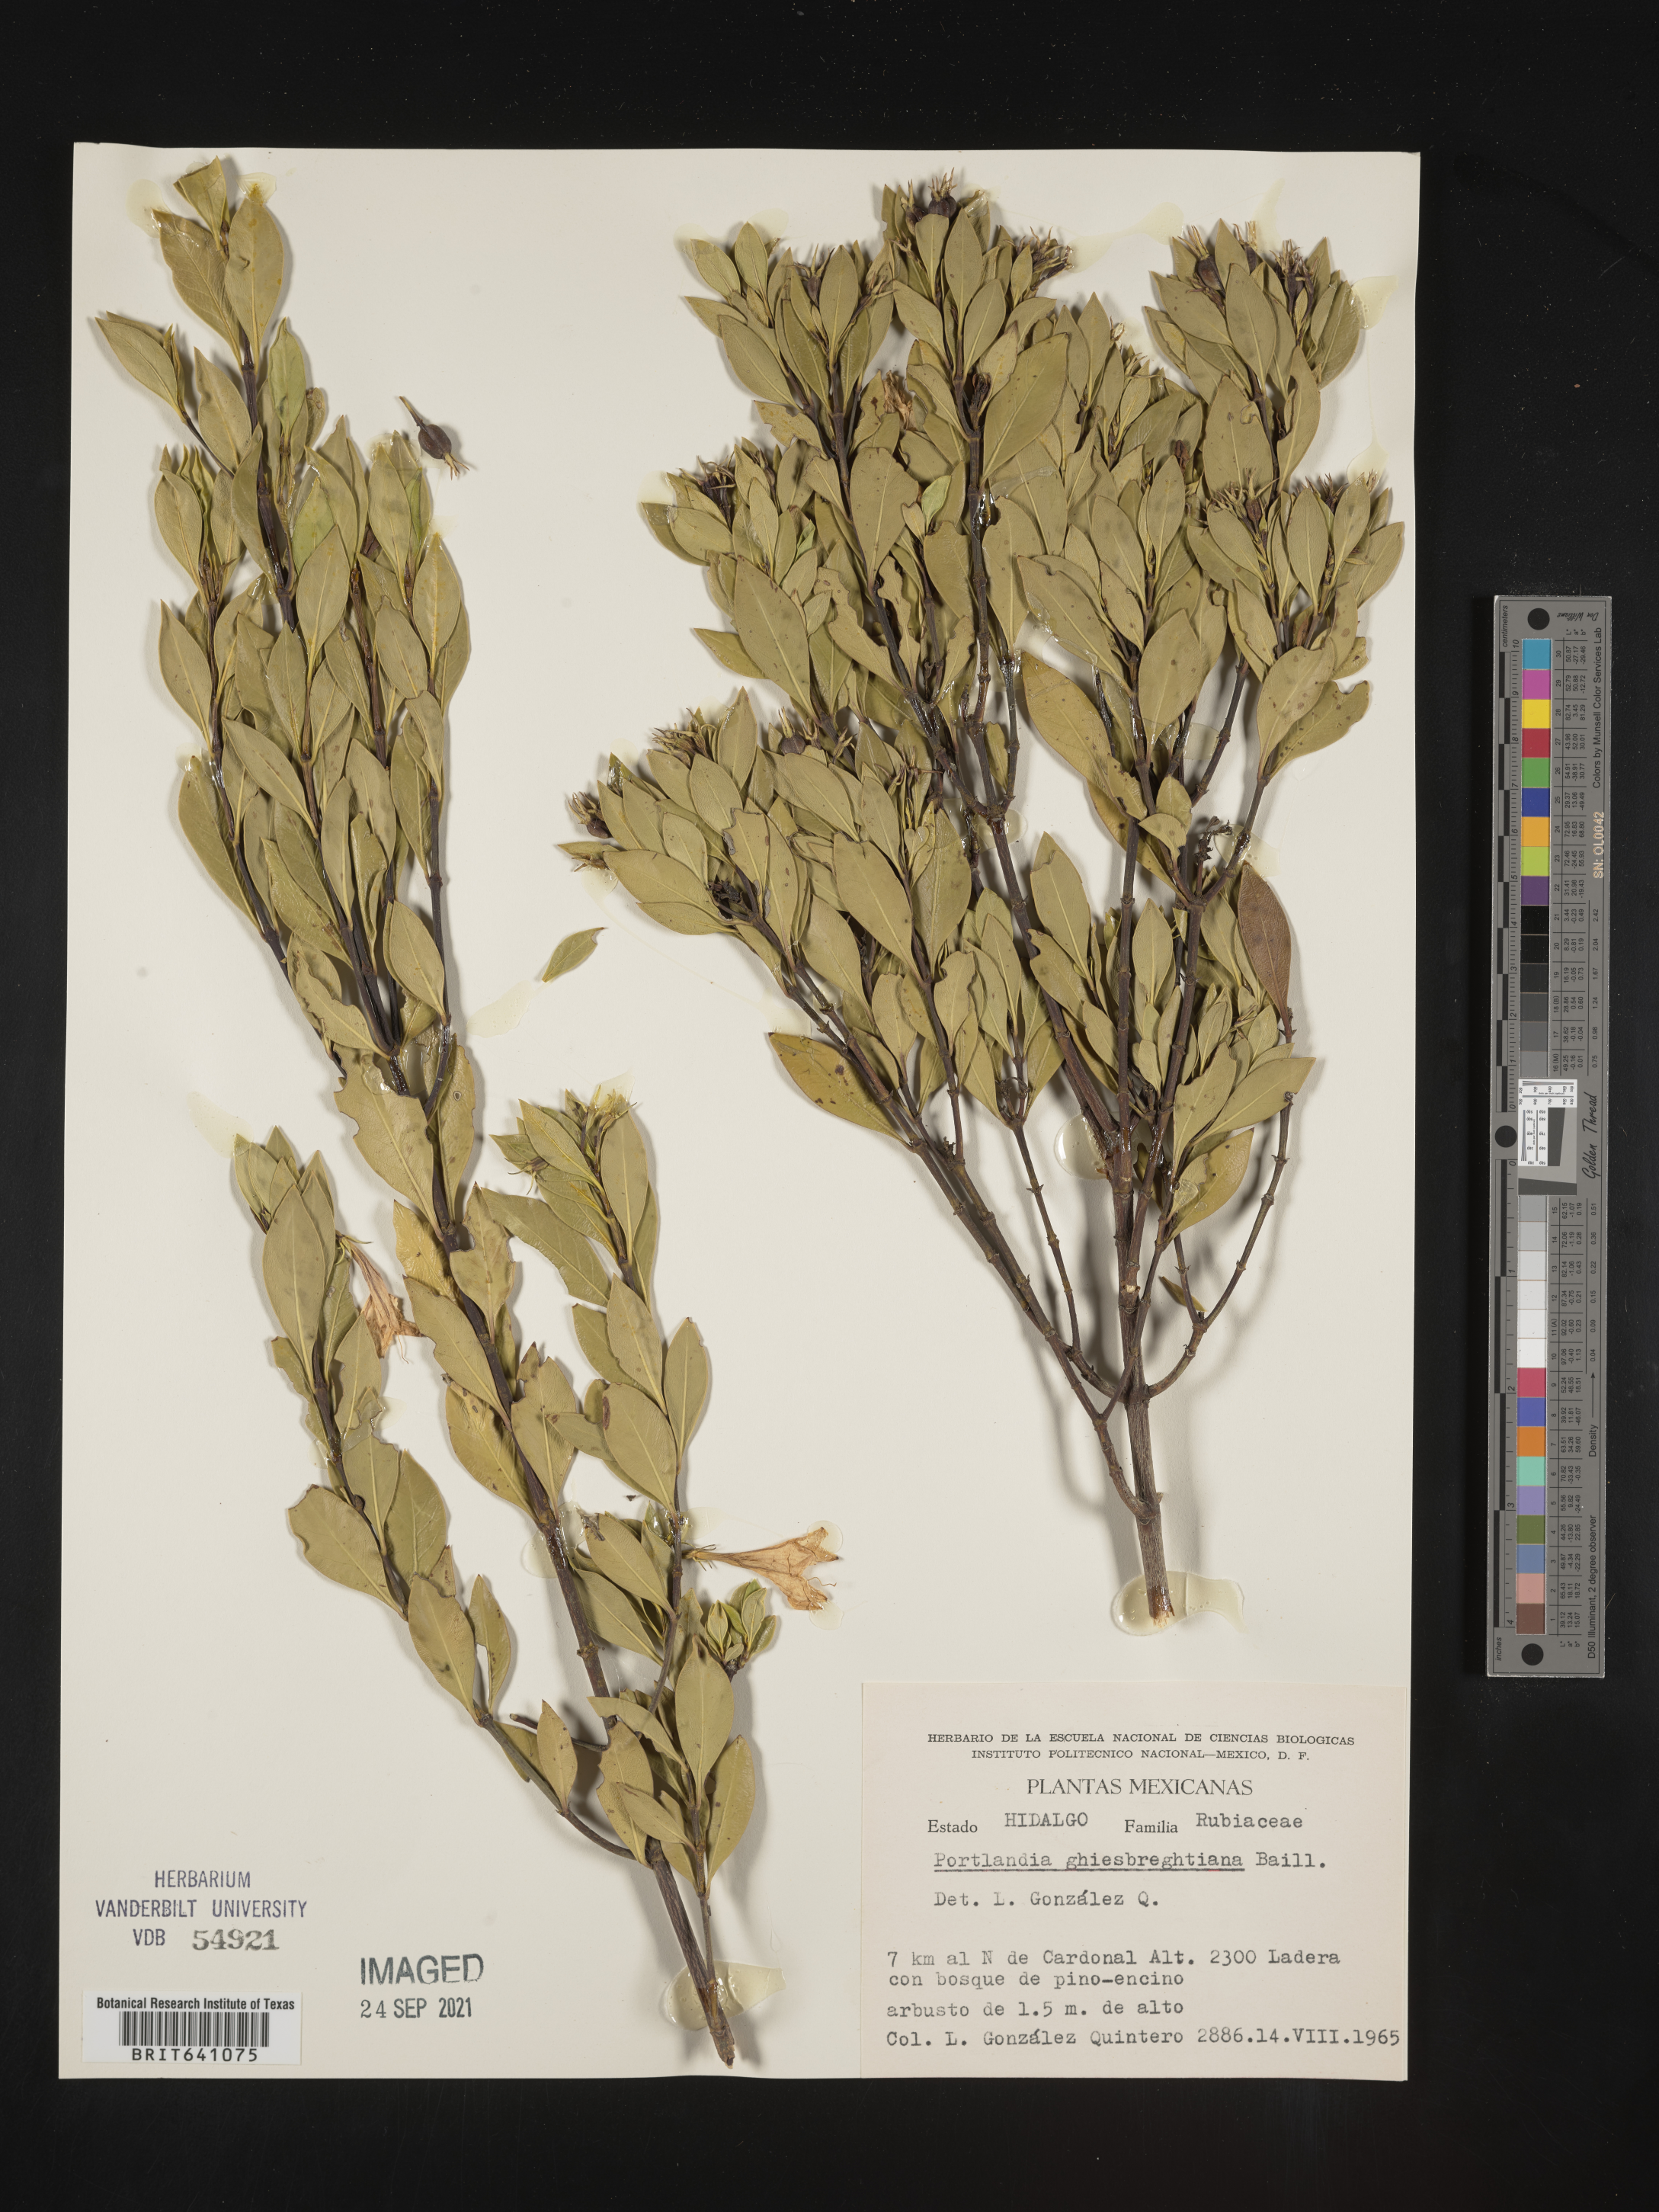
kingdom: Plantae
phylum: Tracheophyta
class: Magnoliopsida
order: Gentianales
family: Rubiaceae
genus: Portlandia
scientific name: Portlandia
